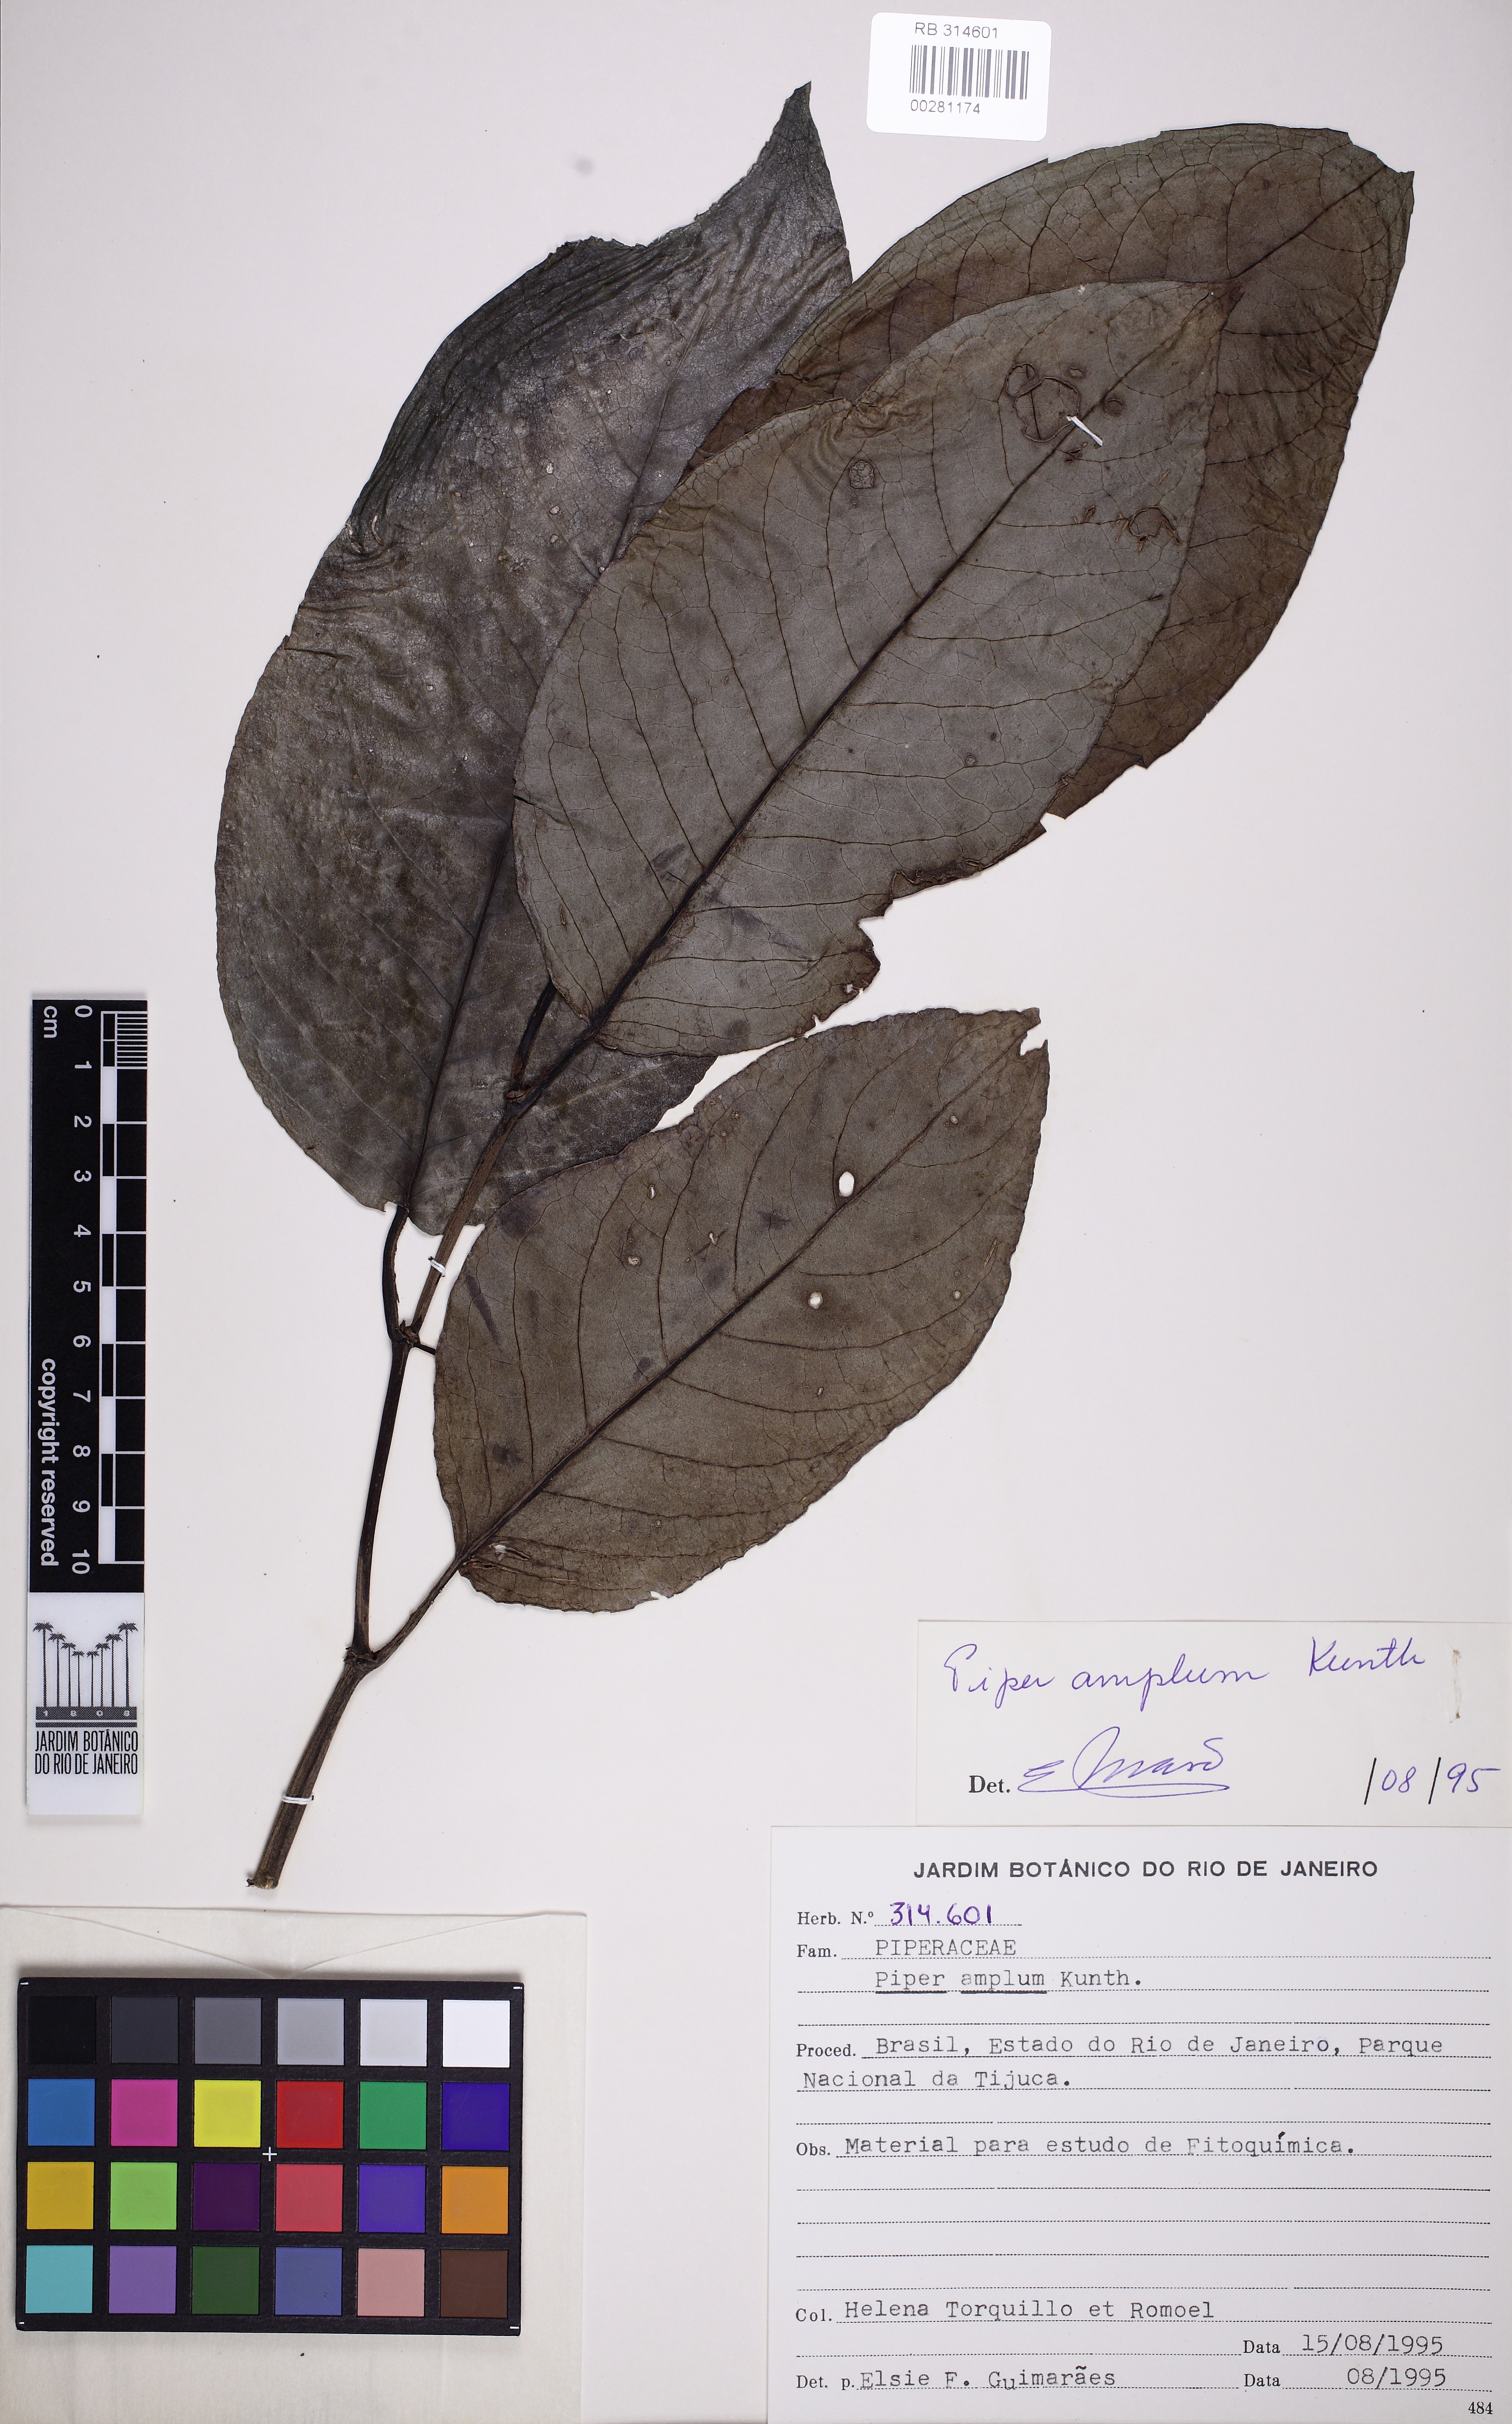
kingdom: Plantae
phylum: Tracheophyta
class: Magnoliopsida
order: Piperales
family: Piperaceae
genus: Piper
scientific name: Piper fluminense
